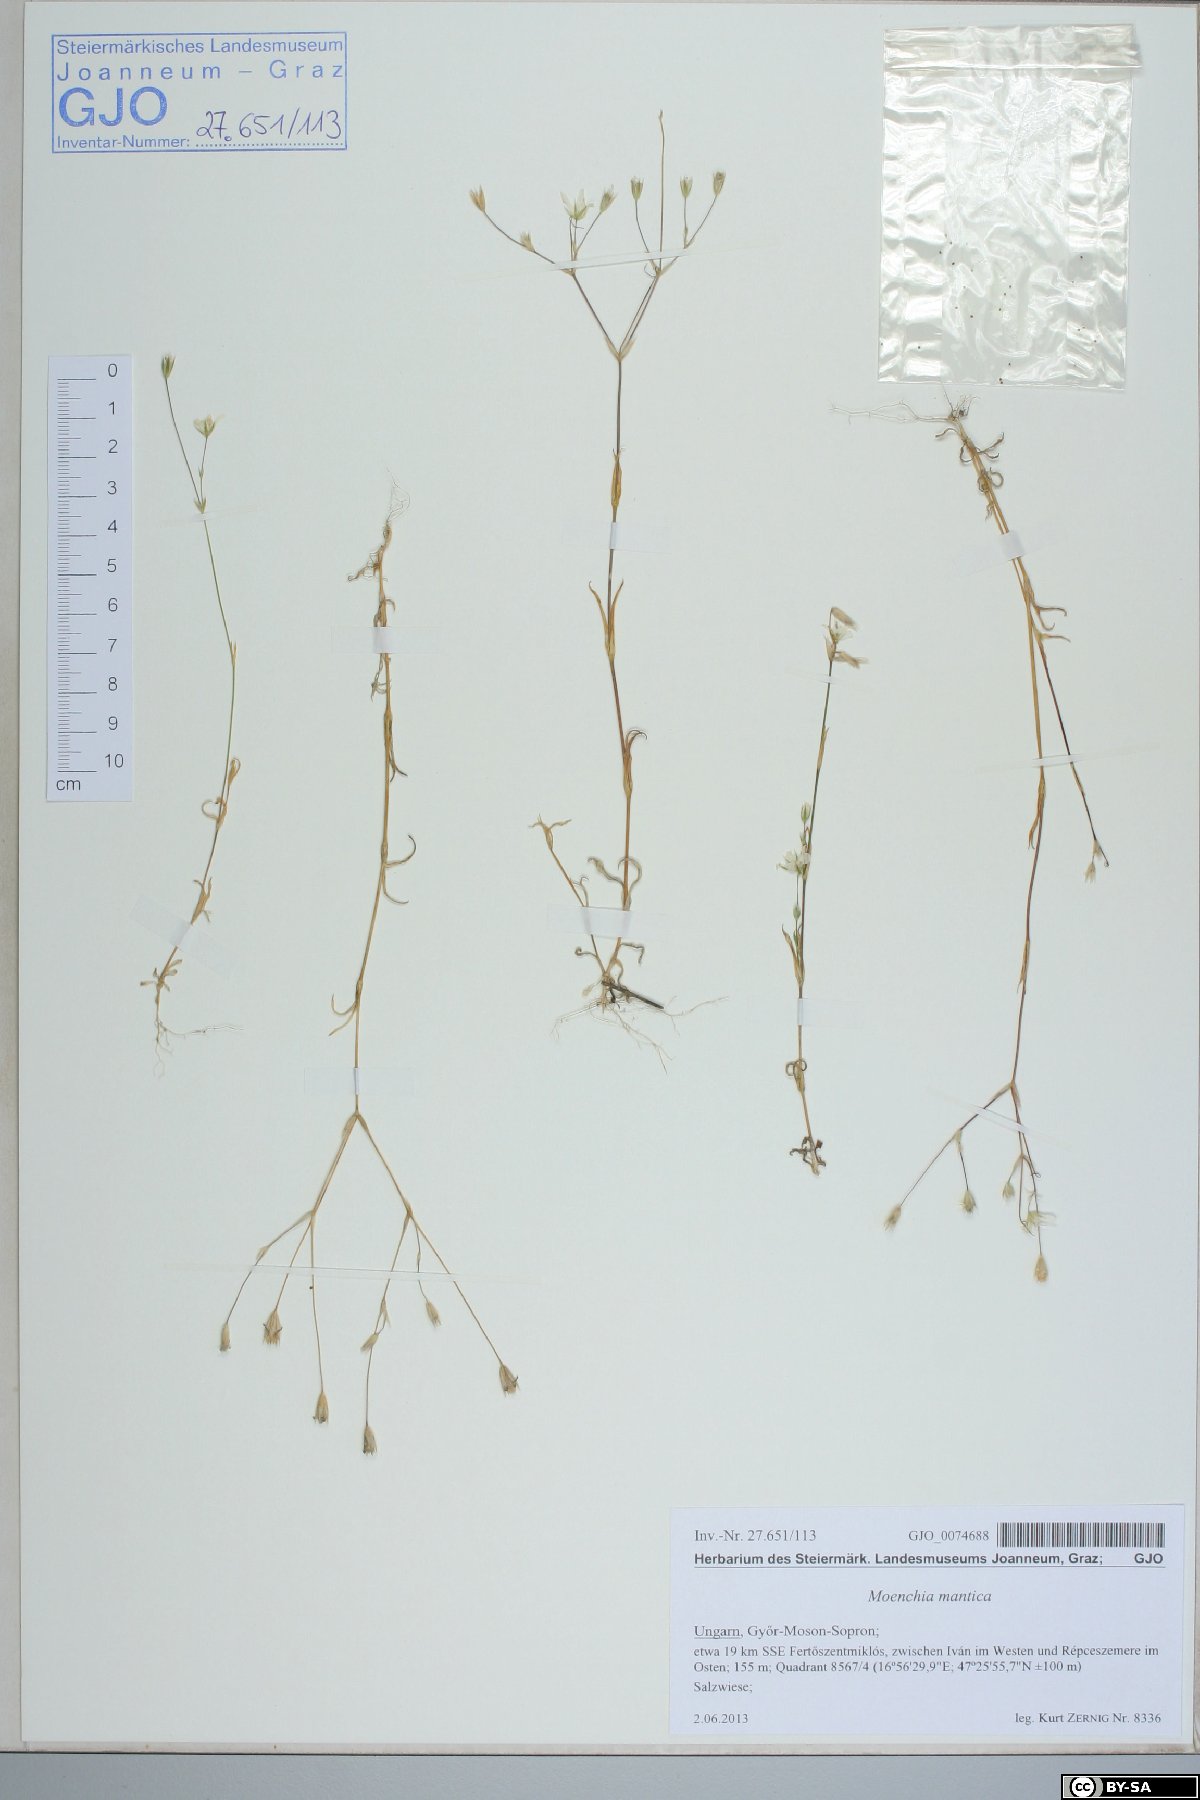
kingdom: Plantae
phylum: Tracheophyta
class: Magnoliopsida
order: Caryophyllales
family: Caryophyllaceae
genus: Moenchia
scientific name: Moenchia mantica
